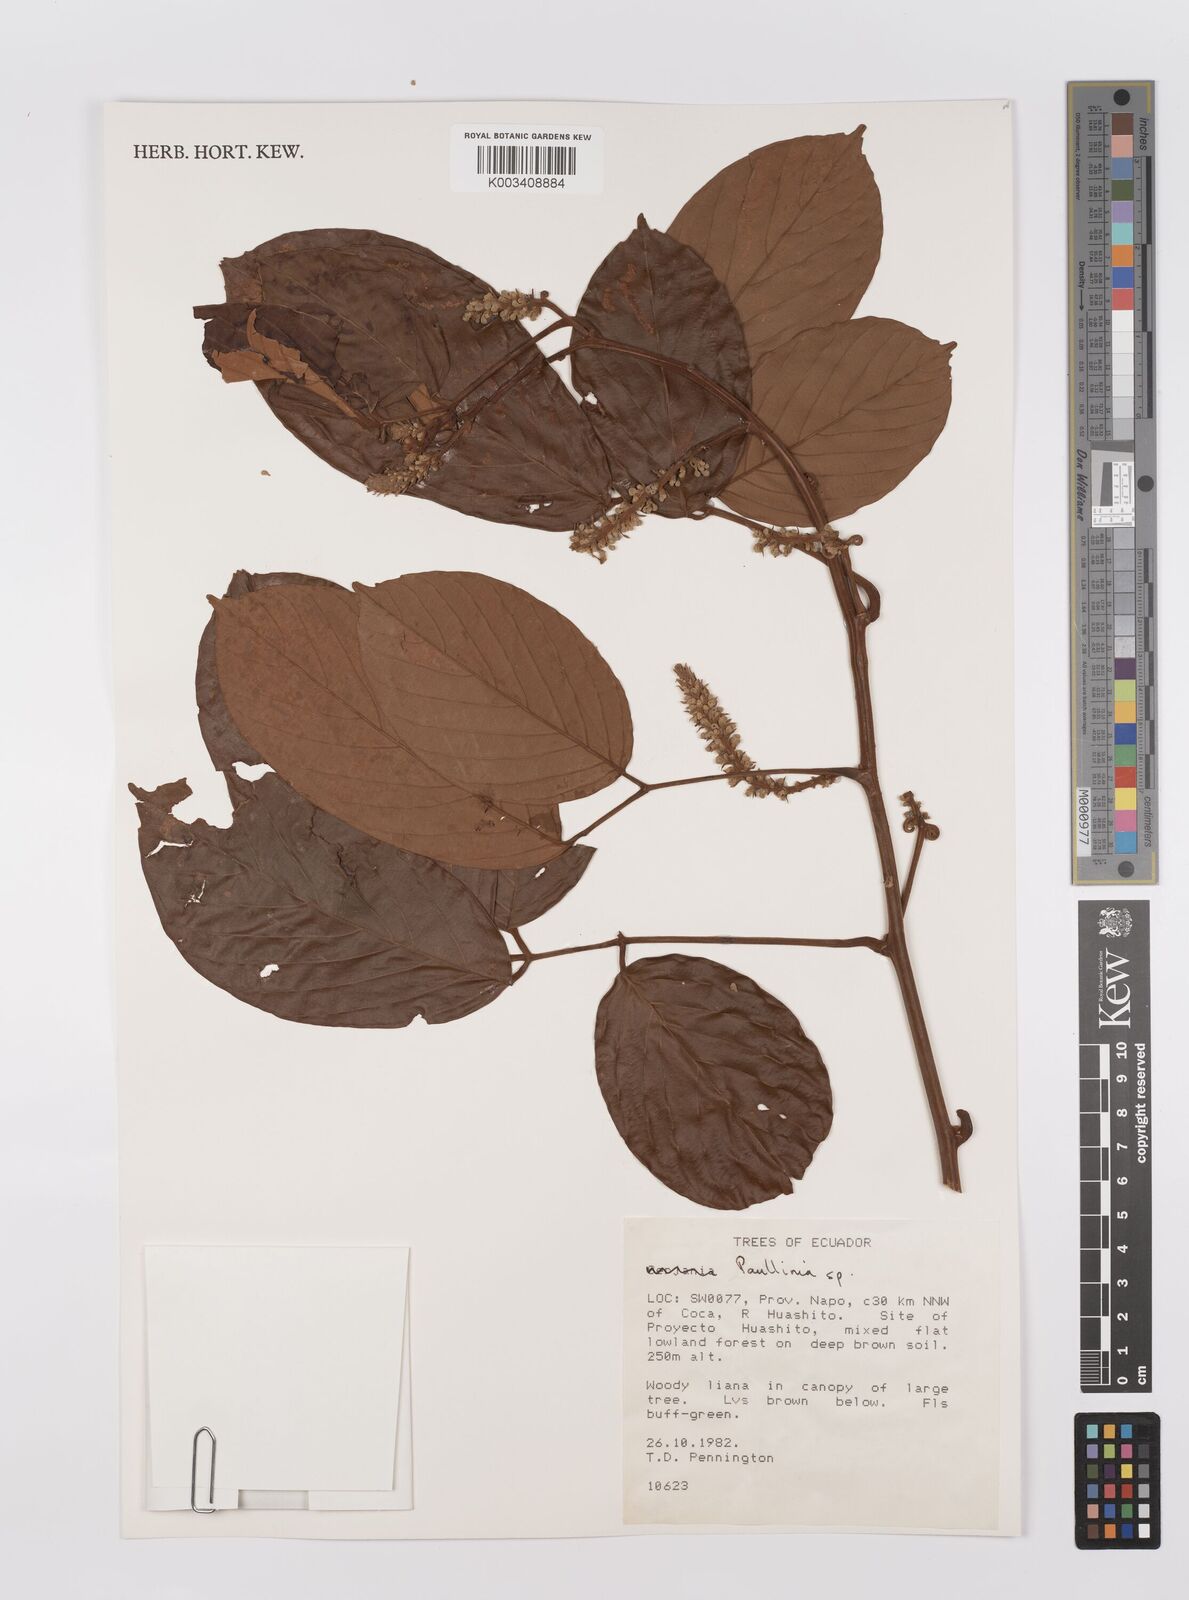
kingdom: Plantae
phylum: Tracheophyta
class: Magnoliopsida
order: Sapindales
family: Sapindaceae
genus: Paullinia
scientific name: Paullinia
